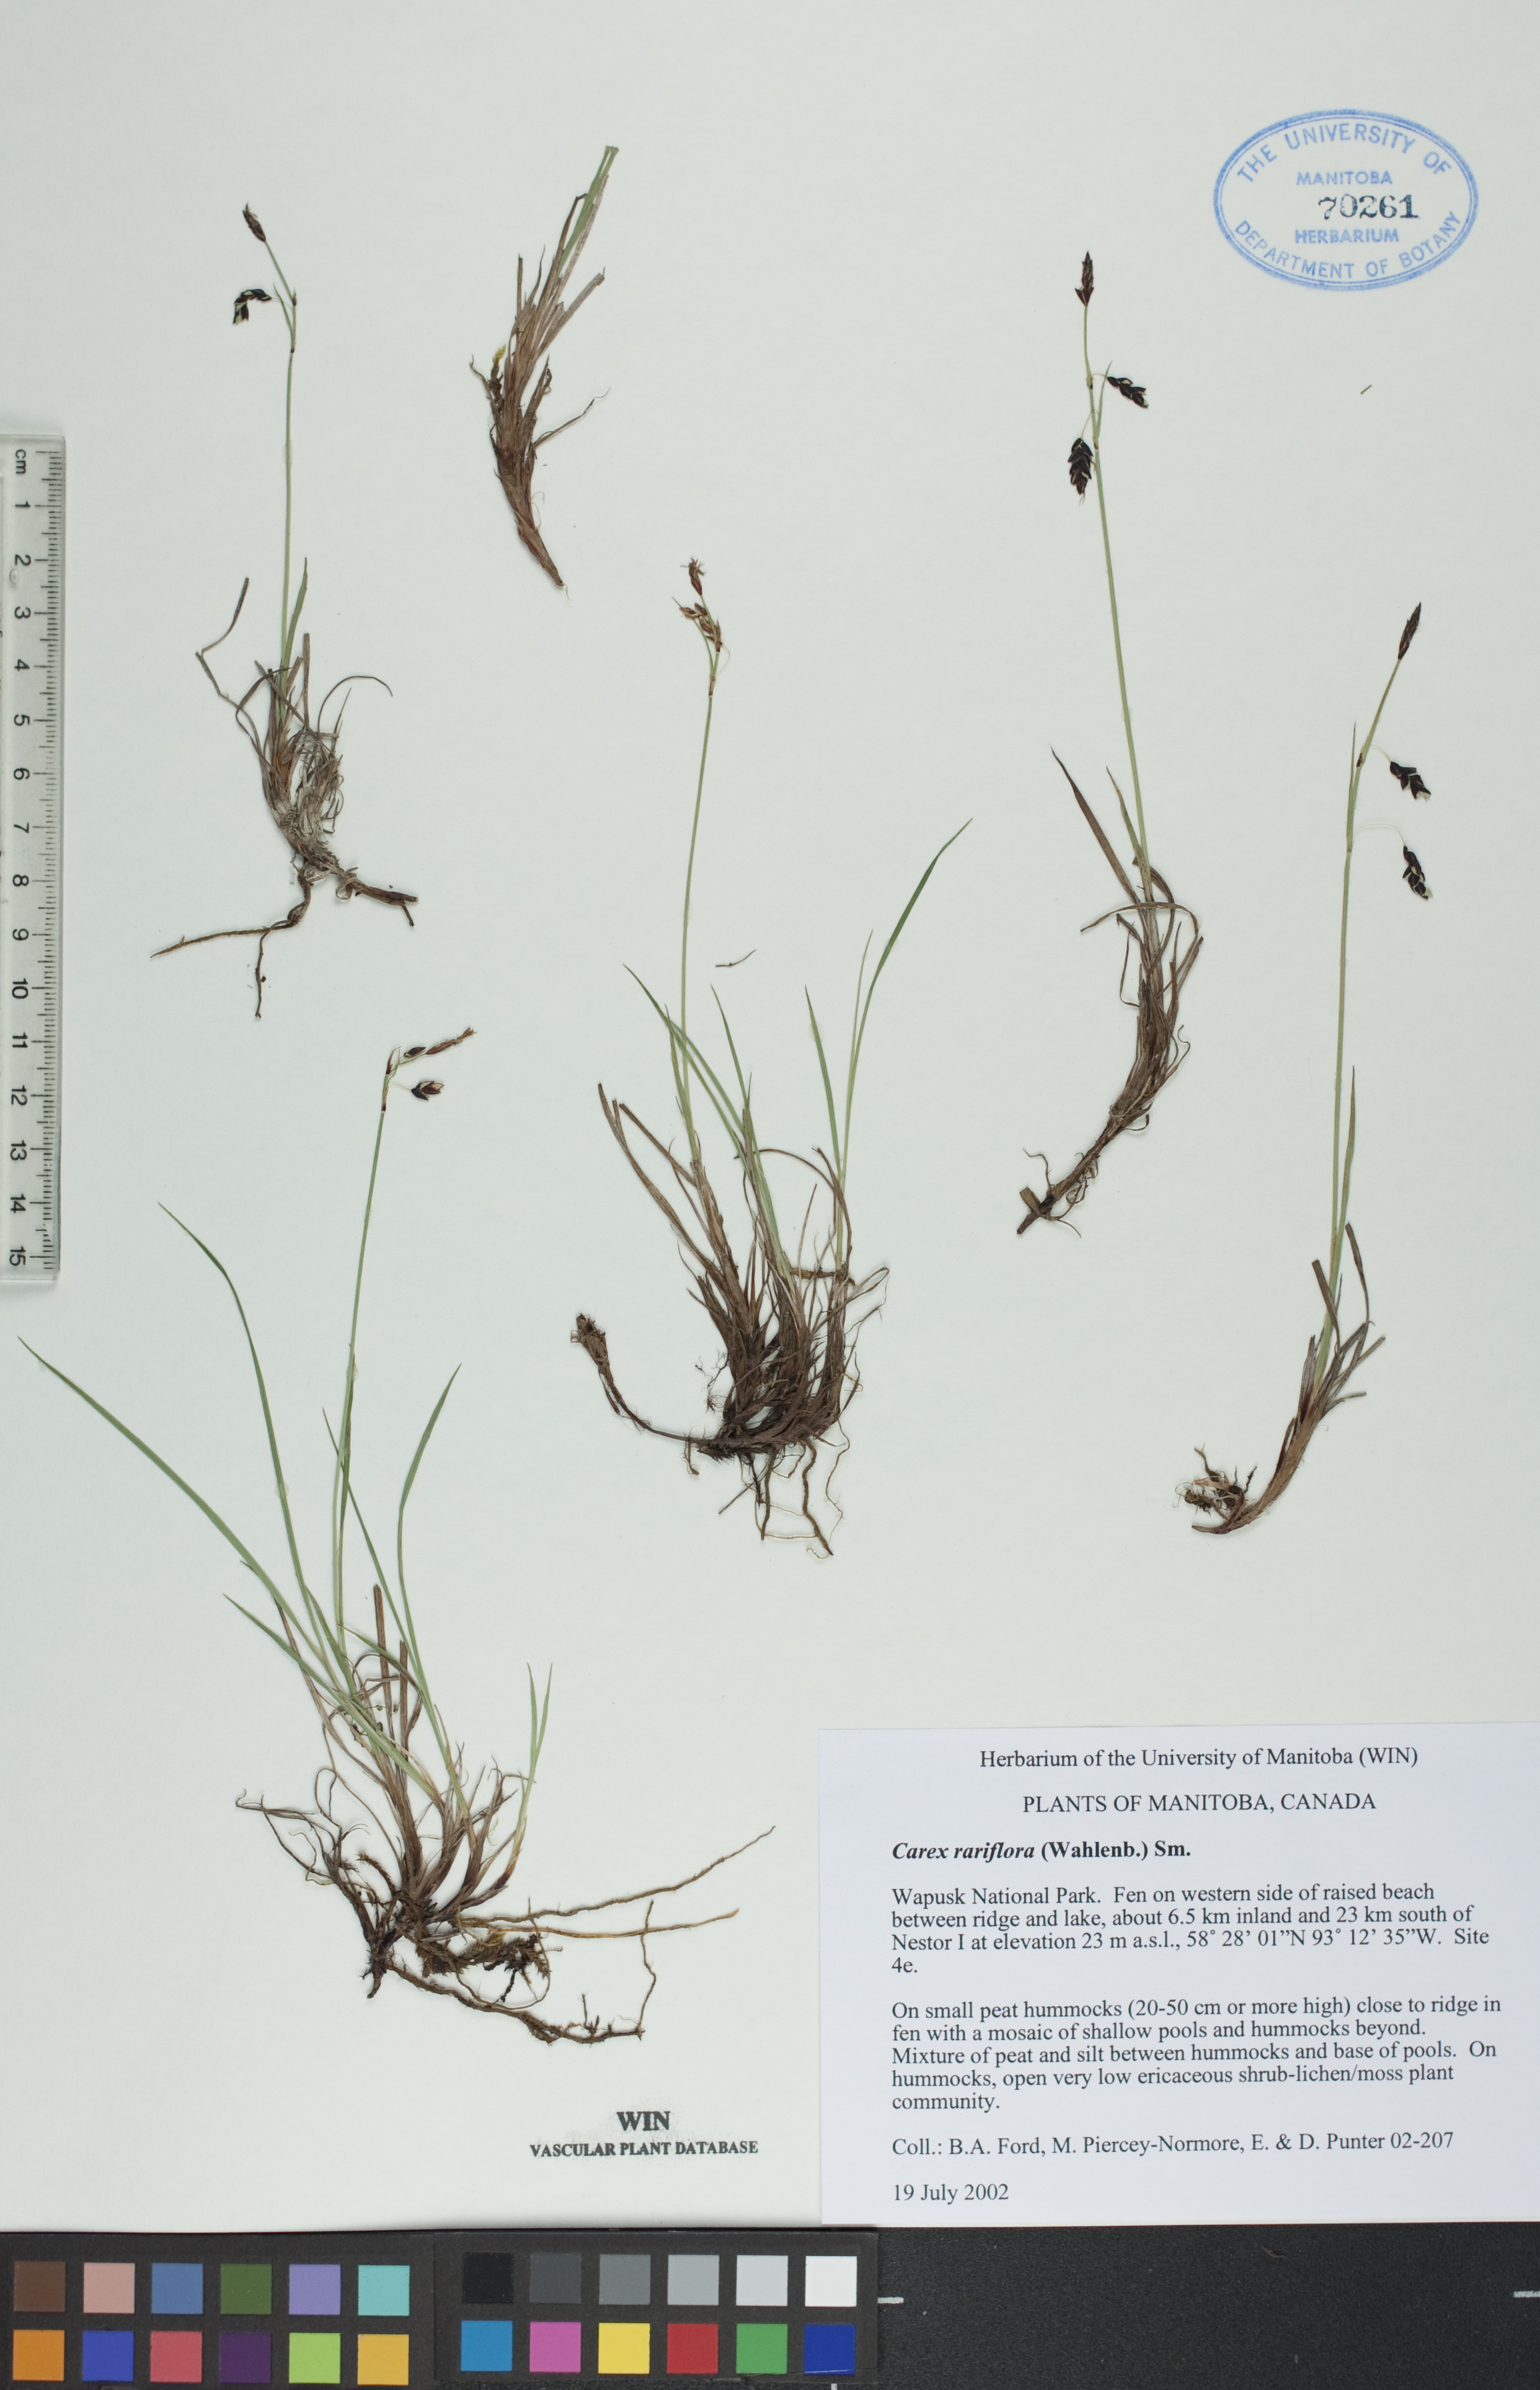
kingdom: Plantae
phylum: Tracheophyta
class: Liliopsida
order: Poales
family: Cyperaceae
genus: Carex
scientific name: Carex rariflora
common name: Loose-flowered alpine sedge
